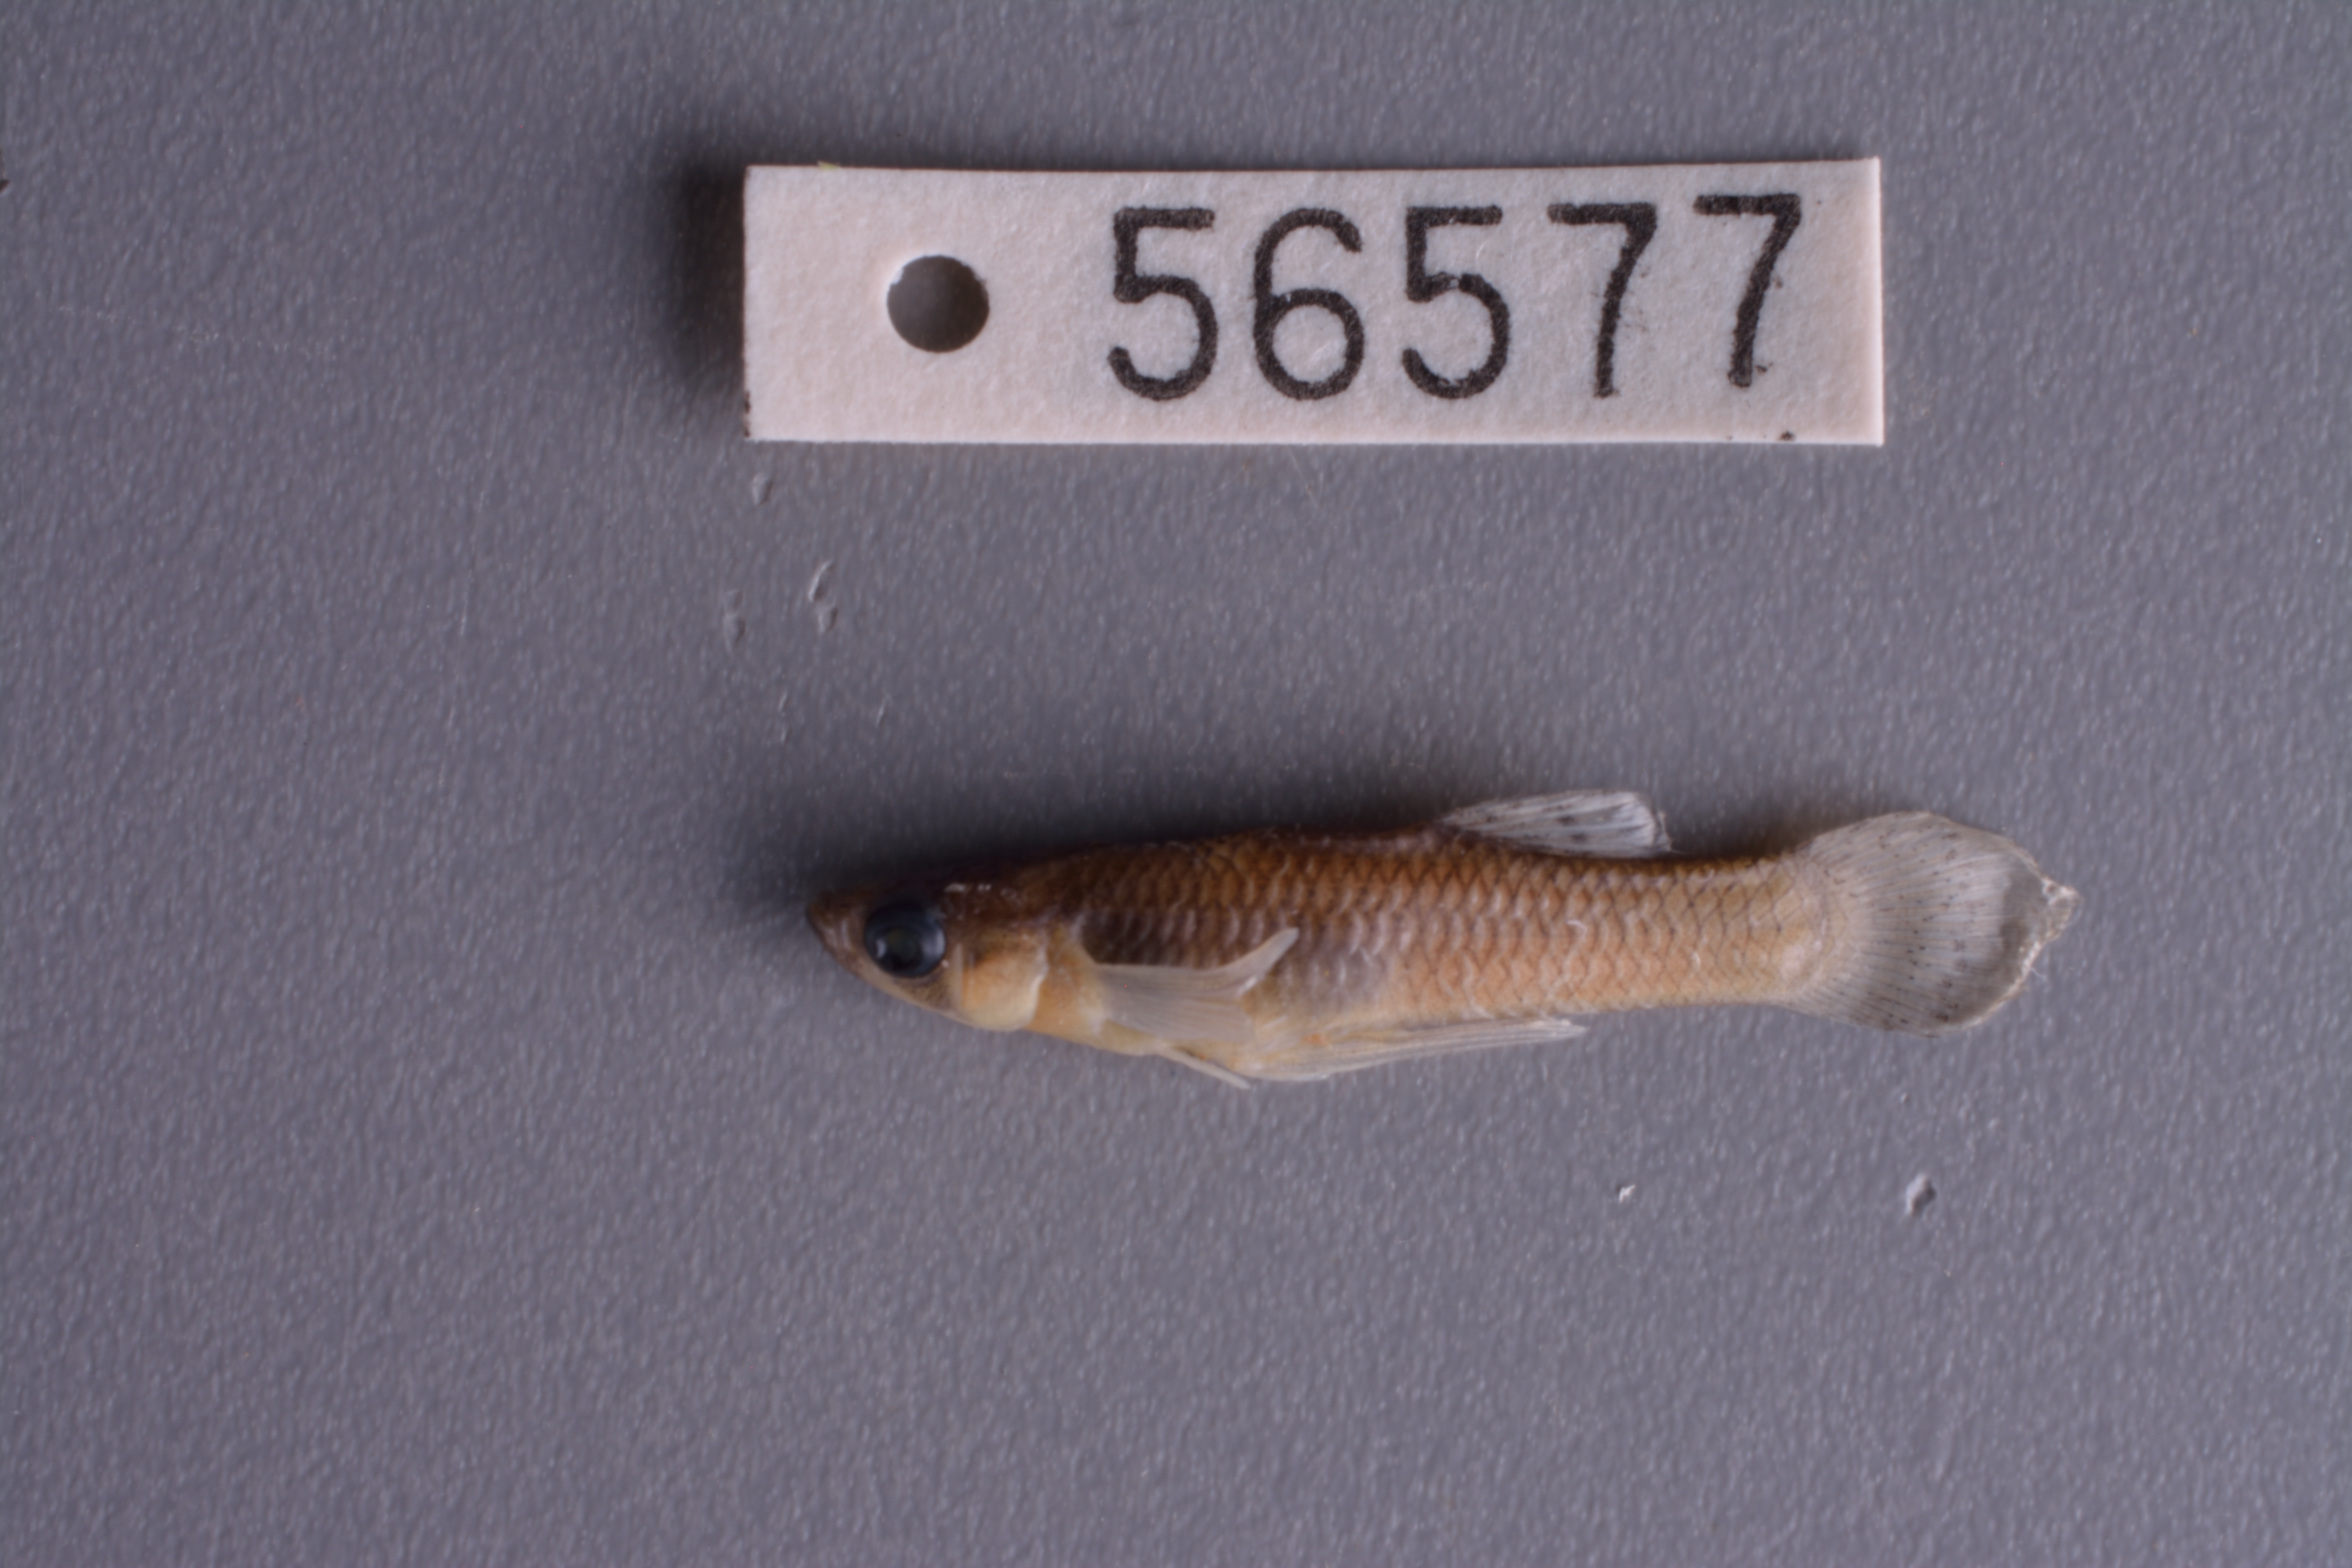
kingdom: Animalia
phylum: Chordata
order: Cyprinodontiformes
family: Poeciliidae
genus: Gambusia
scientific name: Gambusia affinis
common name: Mosquitofish
